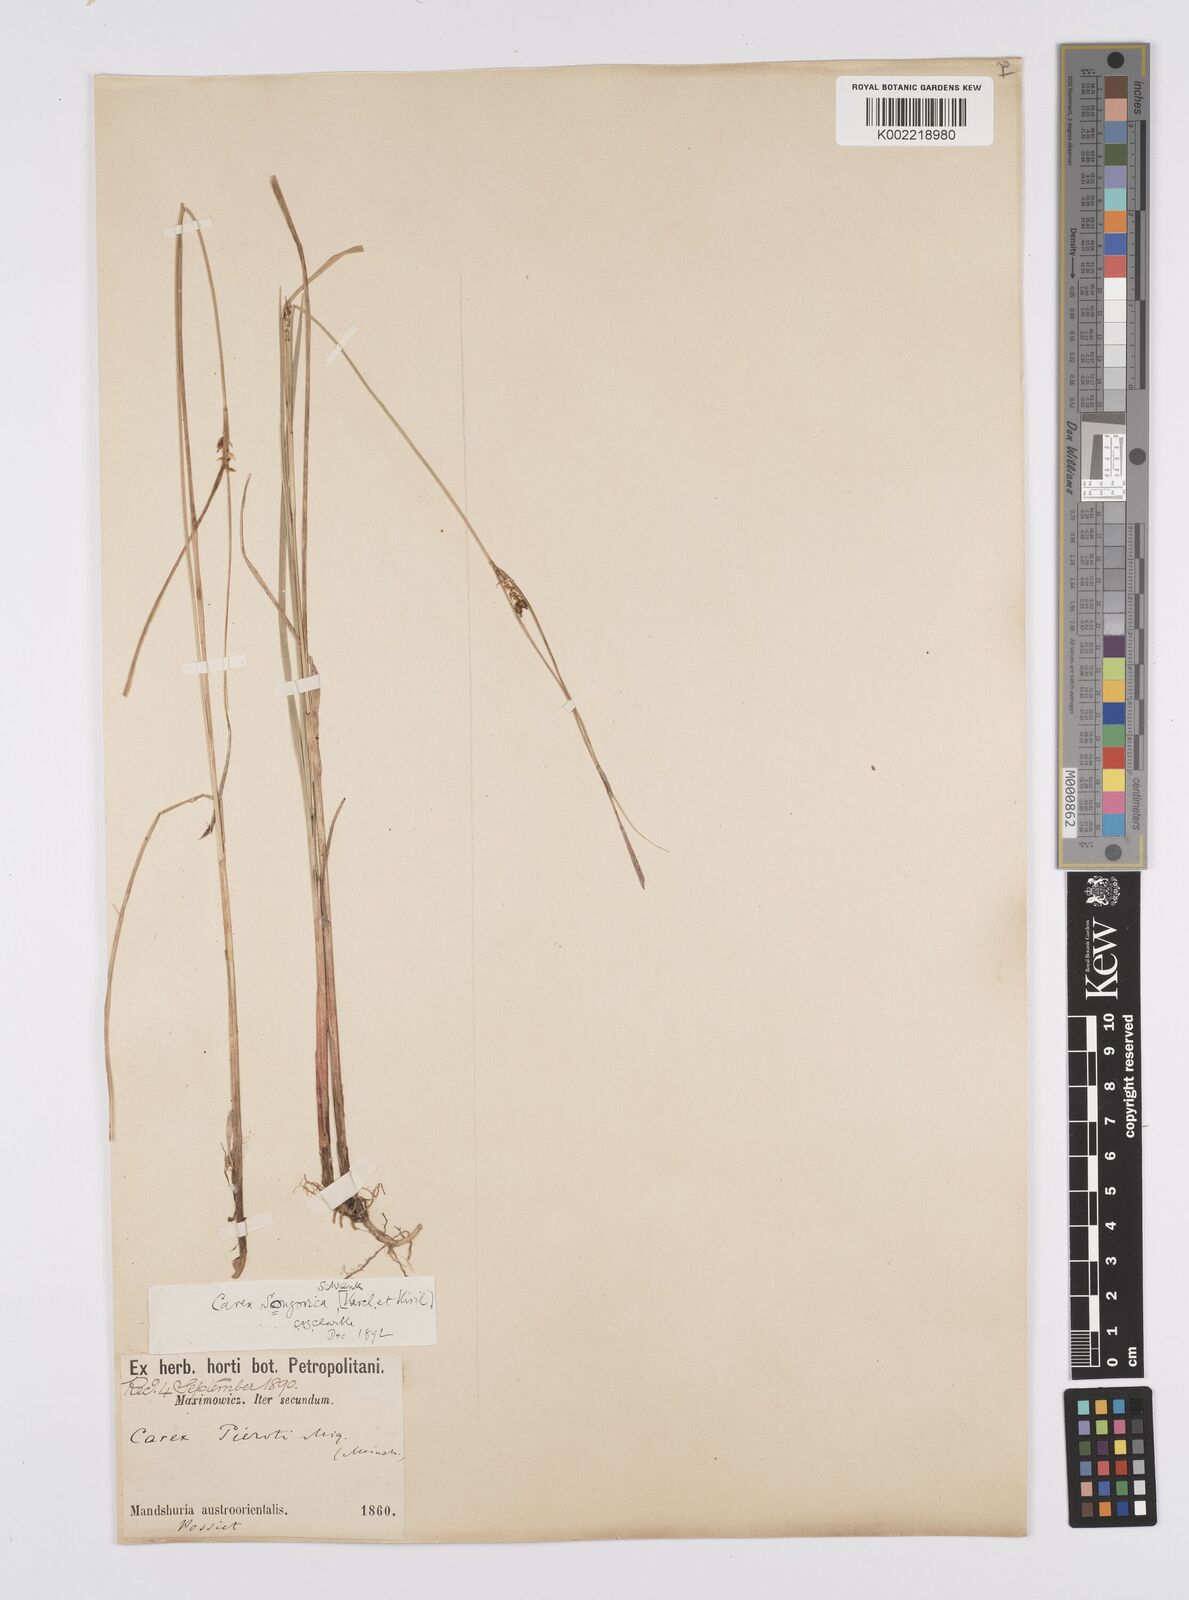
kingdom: Plantae
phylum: Tracheophyta
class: Liliopsida
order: Poales
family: Cyperaceae
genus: Carex
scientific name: Carex heterostachya
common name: Different-spike sedge
